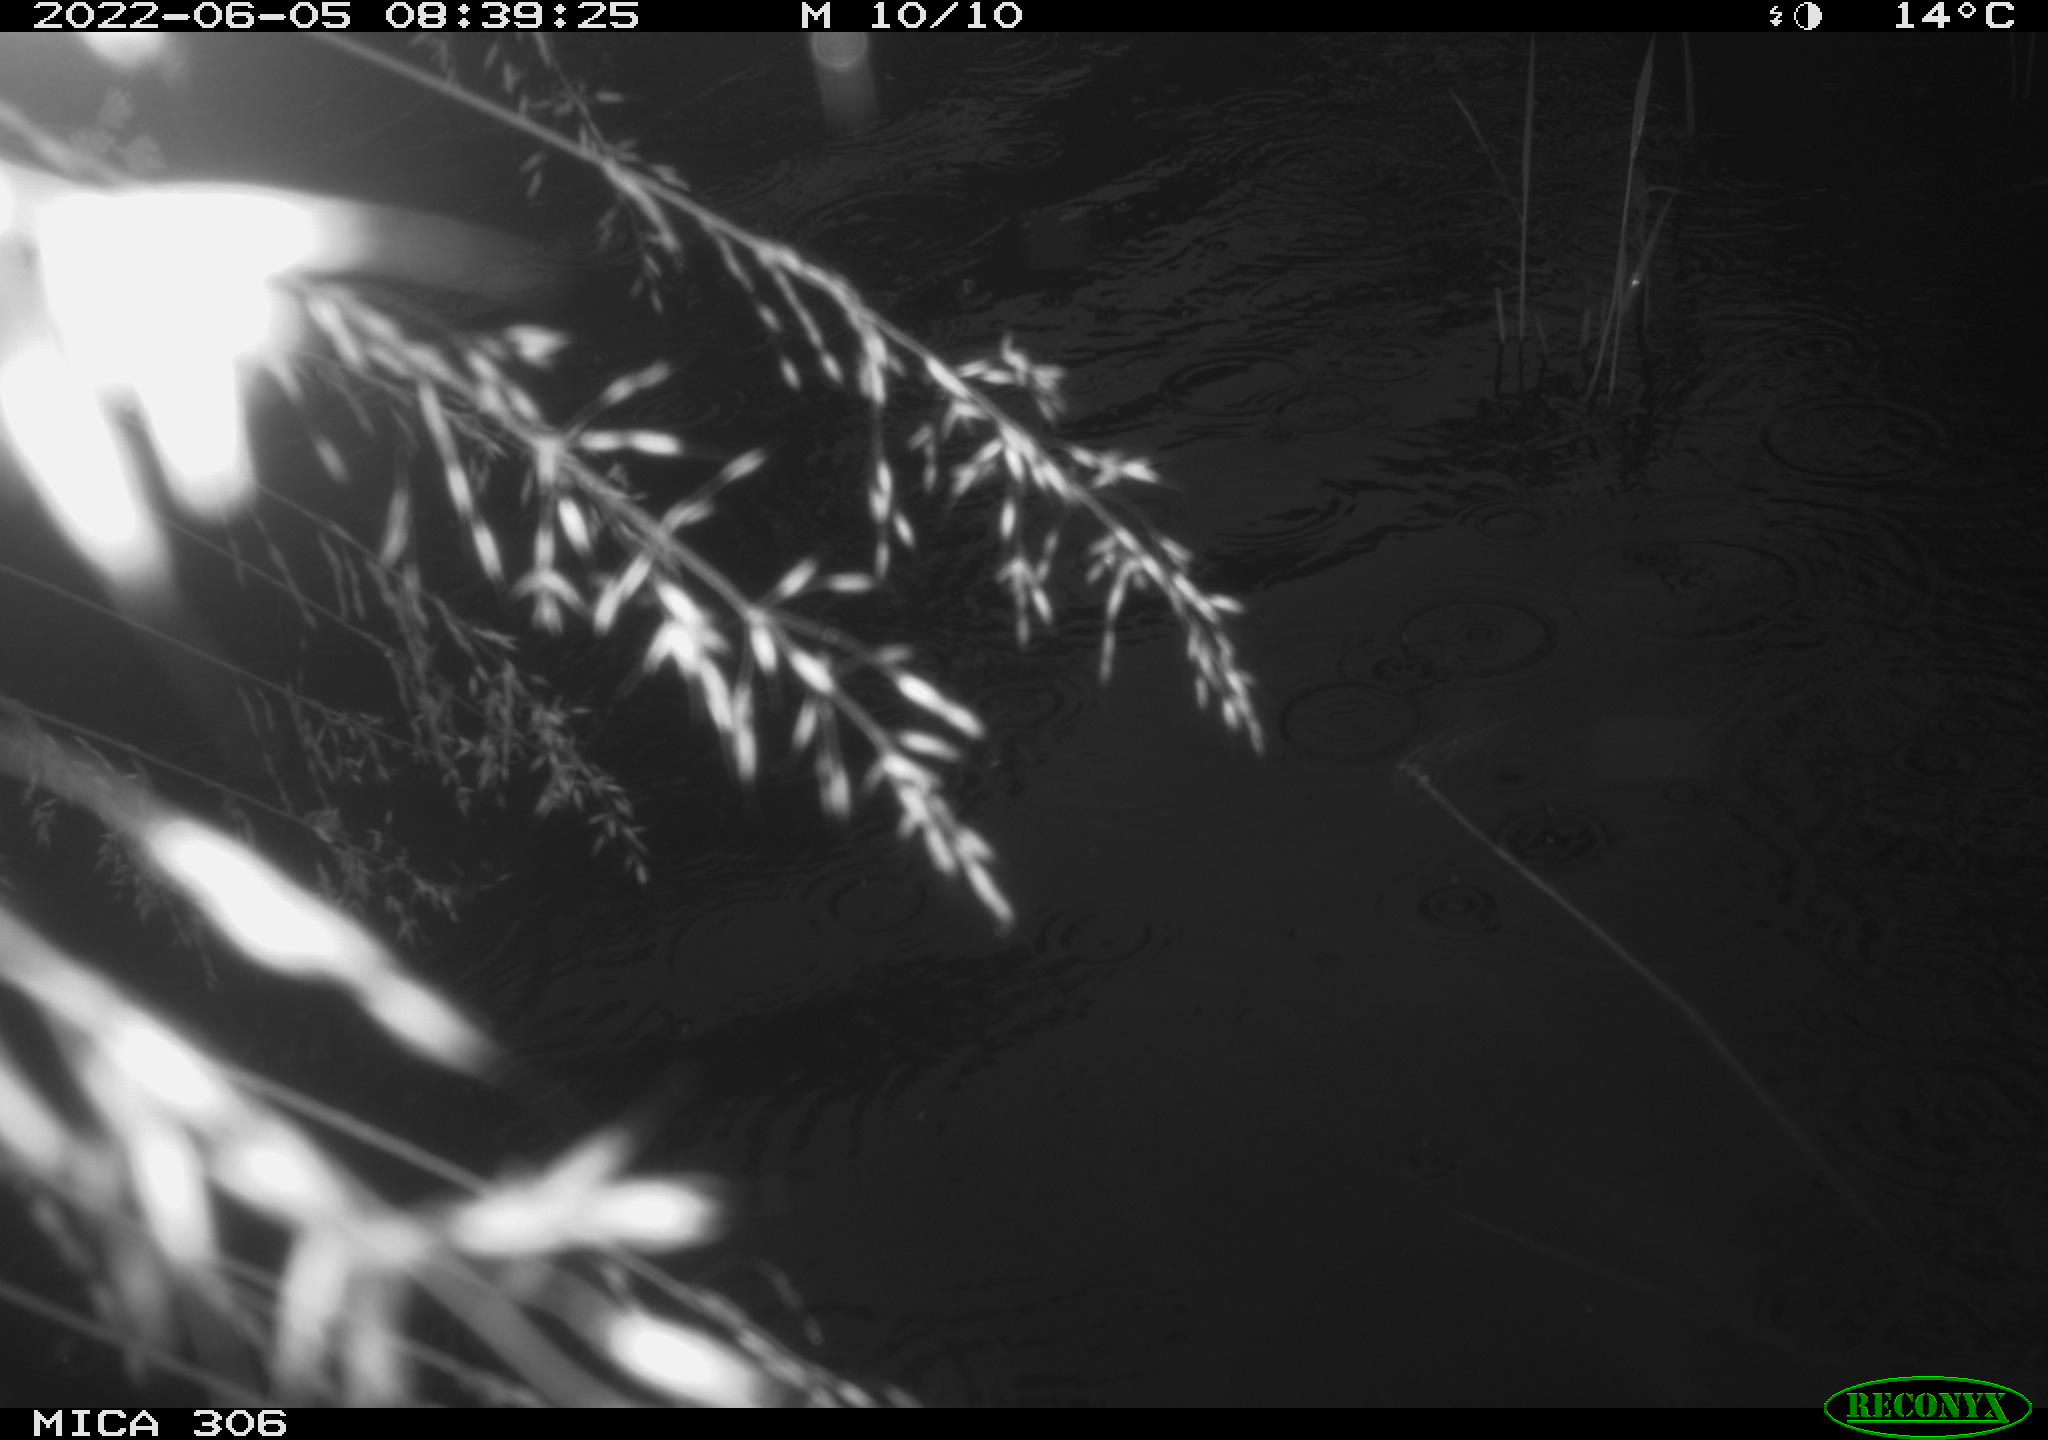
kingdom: Animalia
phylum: Chordata
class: Aves
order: Anseriformes
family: Anatidae
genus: Anas
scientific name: Anas platyrhynchos
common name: Mallard
